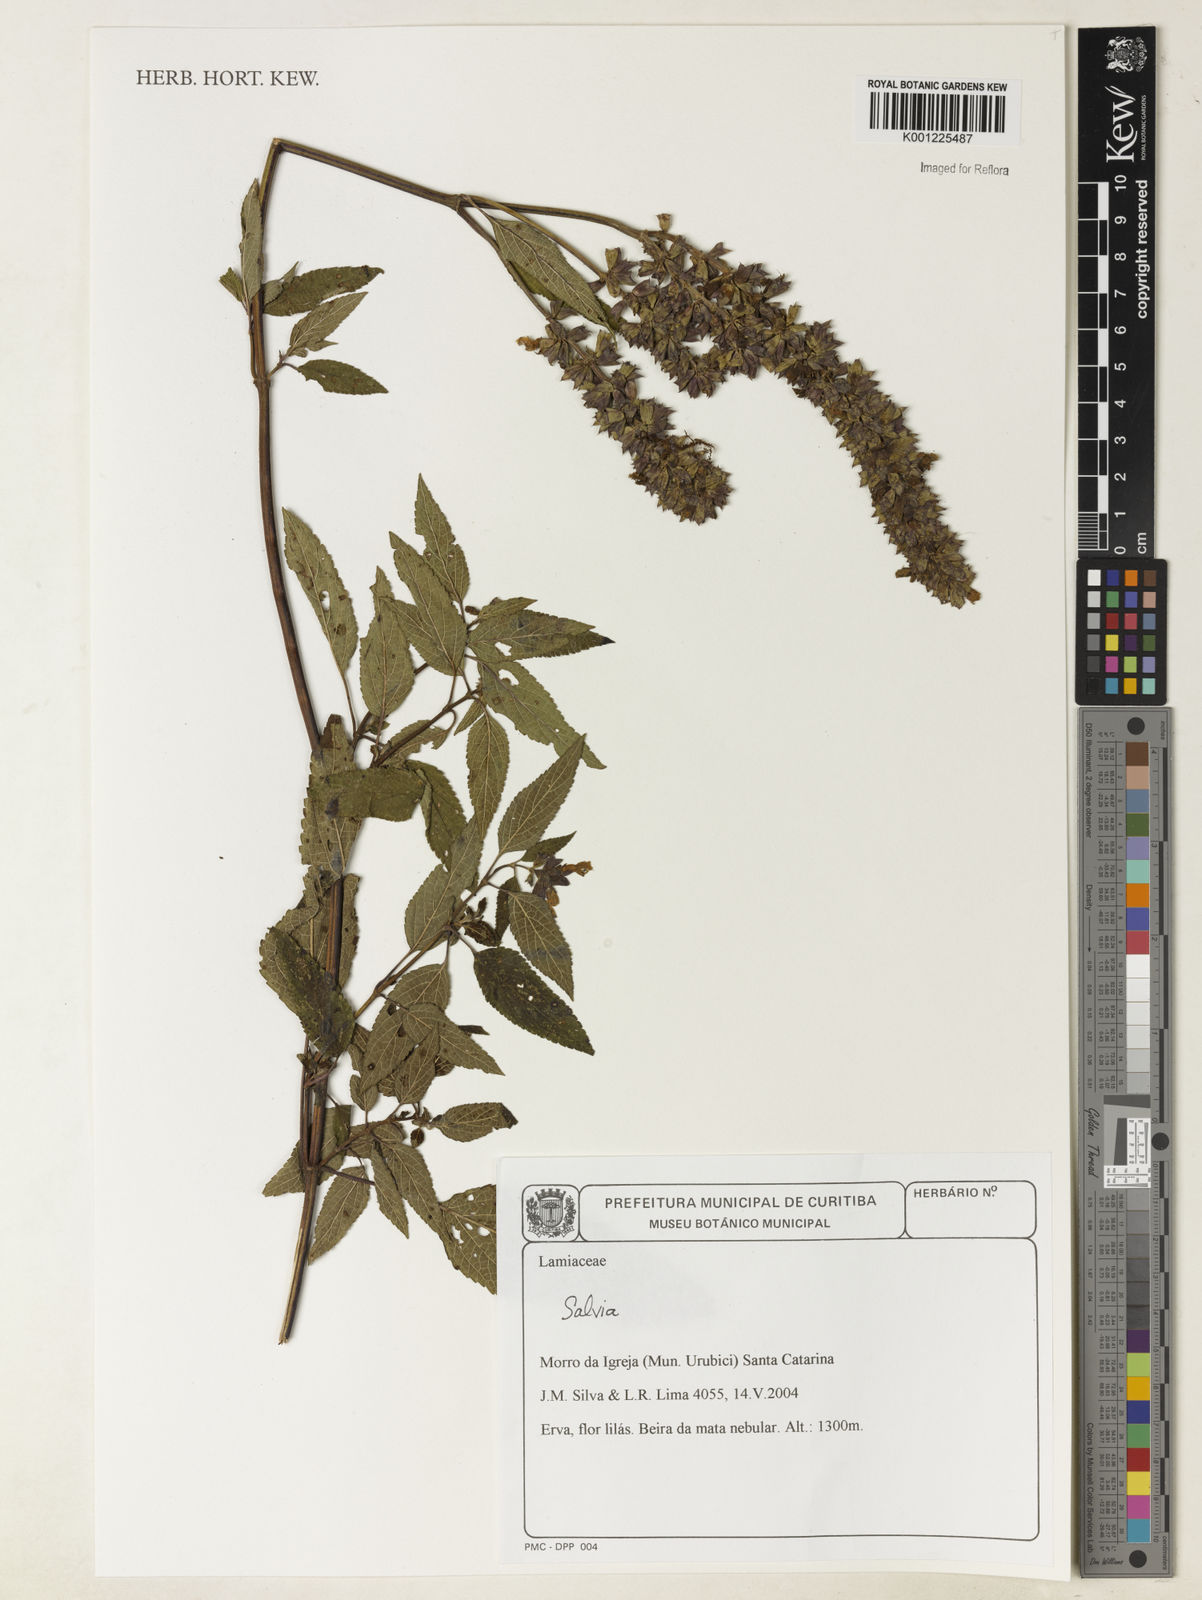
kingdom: Plantae
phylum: Tracheophyta
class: Magnoliopsida
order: Lamiales
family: Lamiaceae
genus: Salvia
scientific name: Salvia
